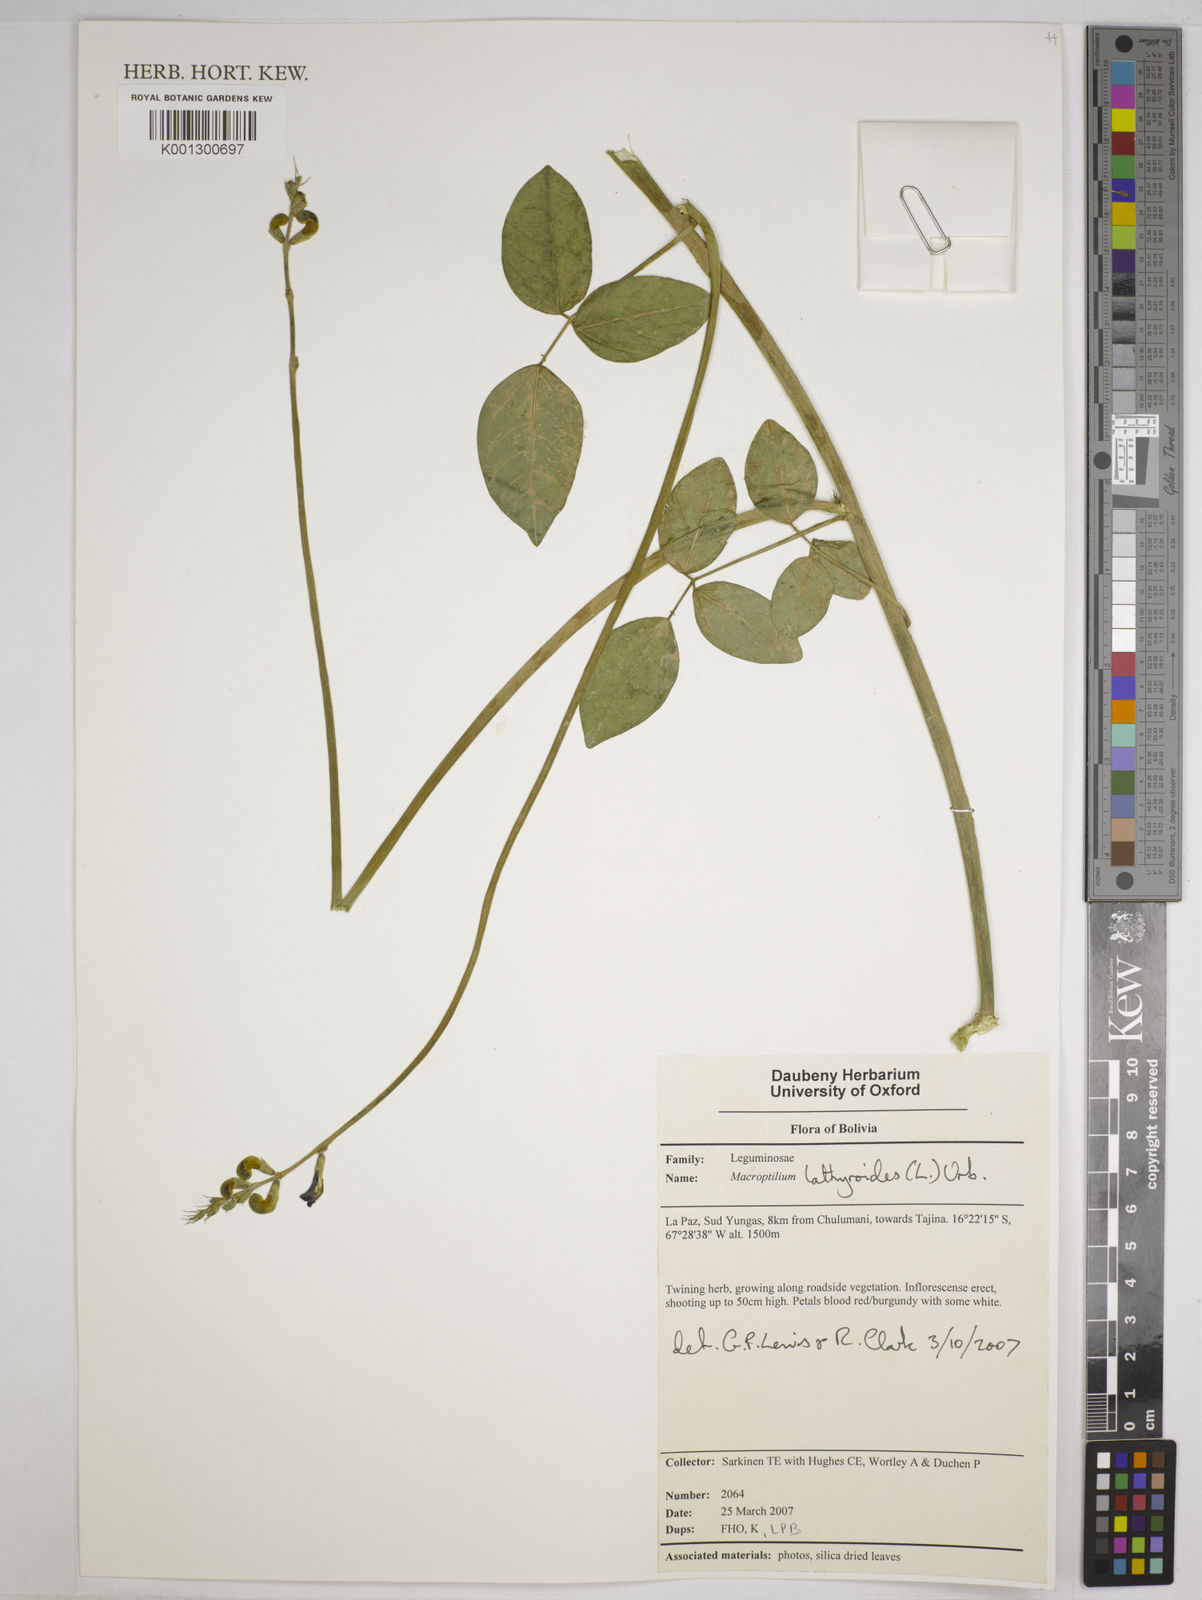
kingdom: Plantae
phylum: Tracheophyta
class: Magnoliopsida
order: Fabales
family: Fabaceae
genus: Macroptilium
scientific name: Macroptilium lathyroides
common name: Wild bushbean
